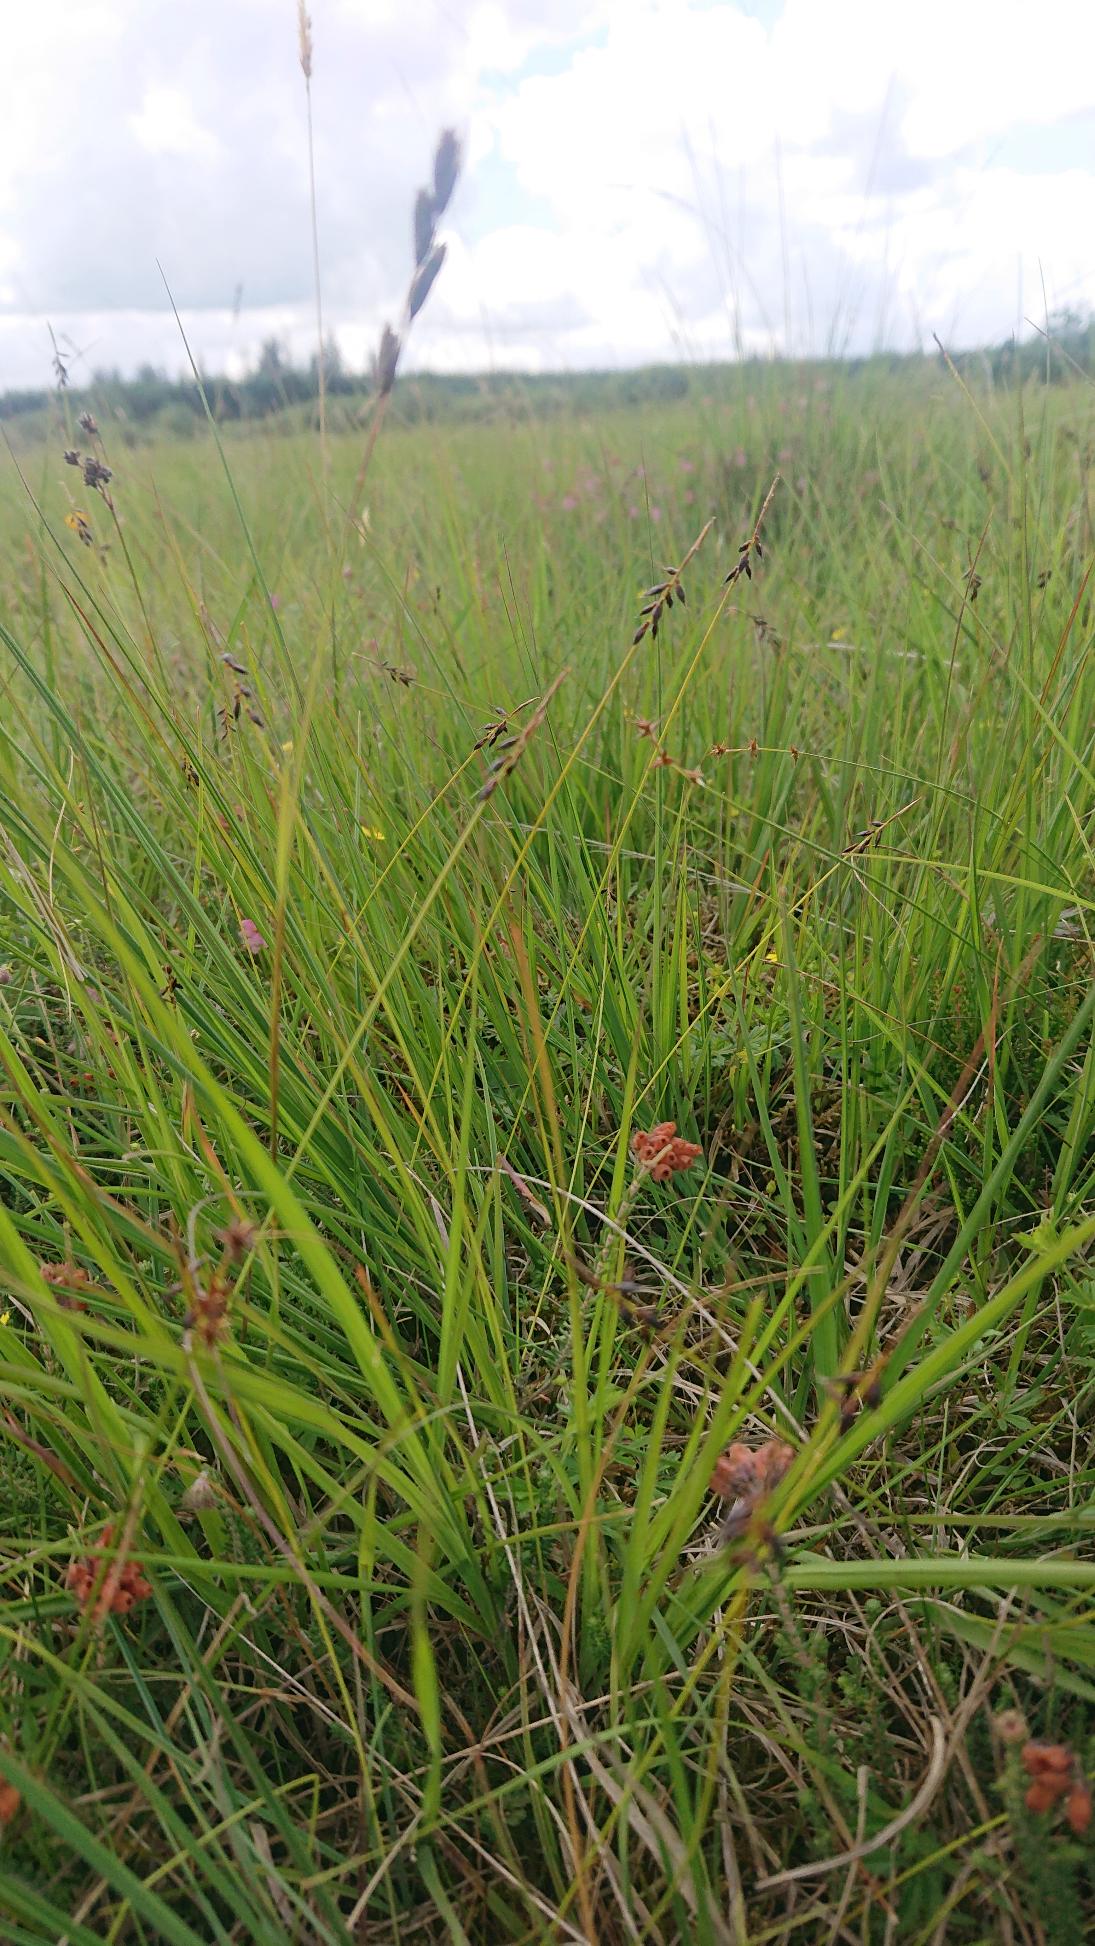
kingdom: Plantae
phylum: Tracheophyta
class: Liliopsida
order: Poales
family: Cyperaceae
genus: Carex
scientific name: Carex pulicaris
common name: Loppe-star
